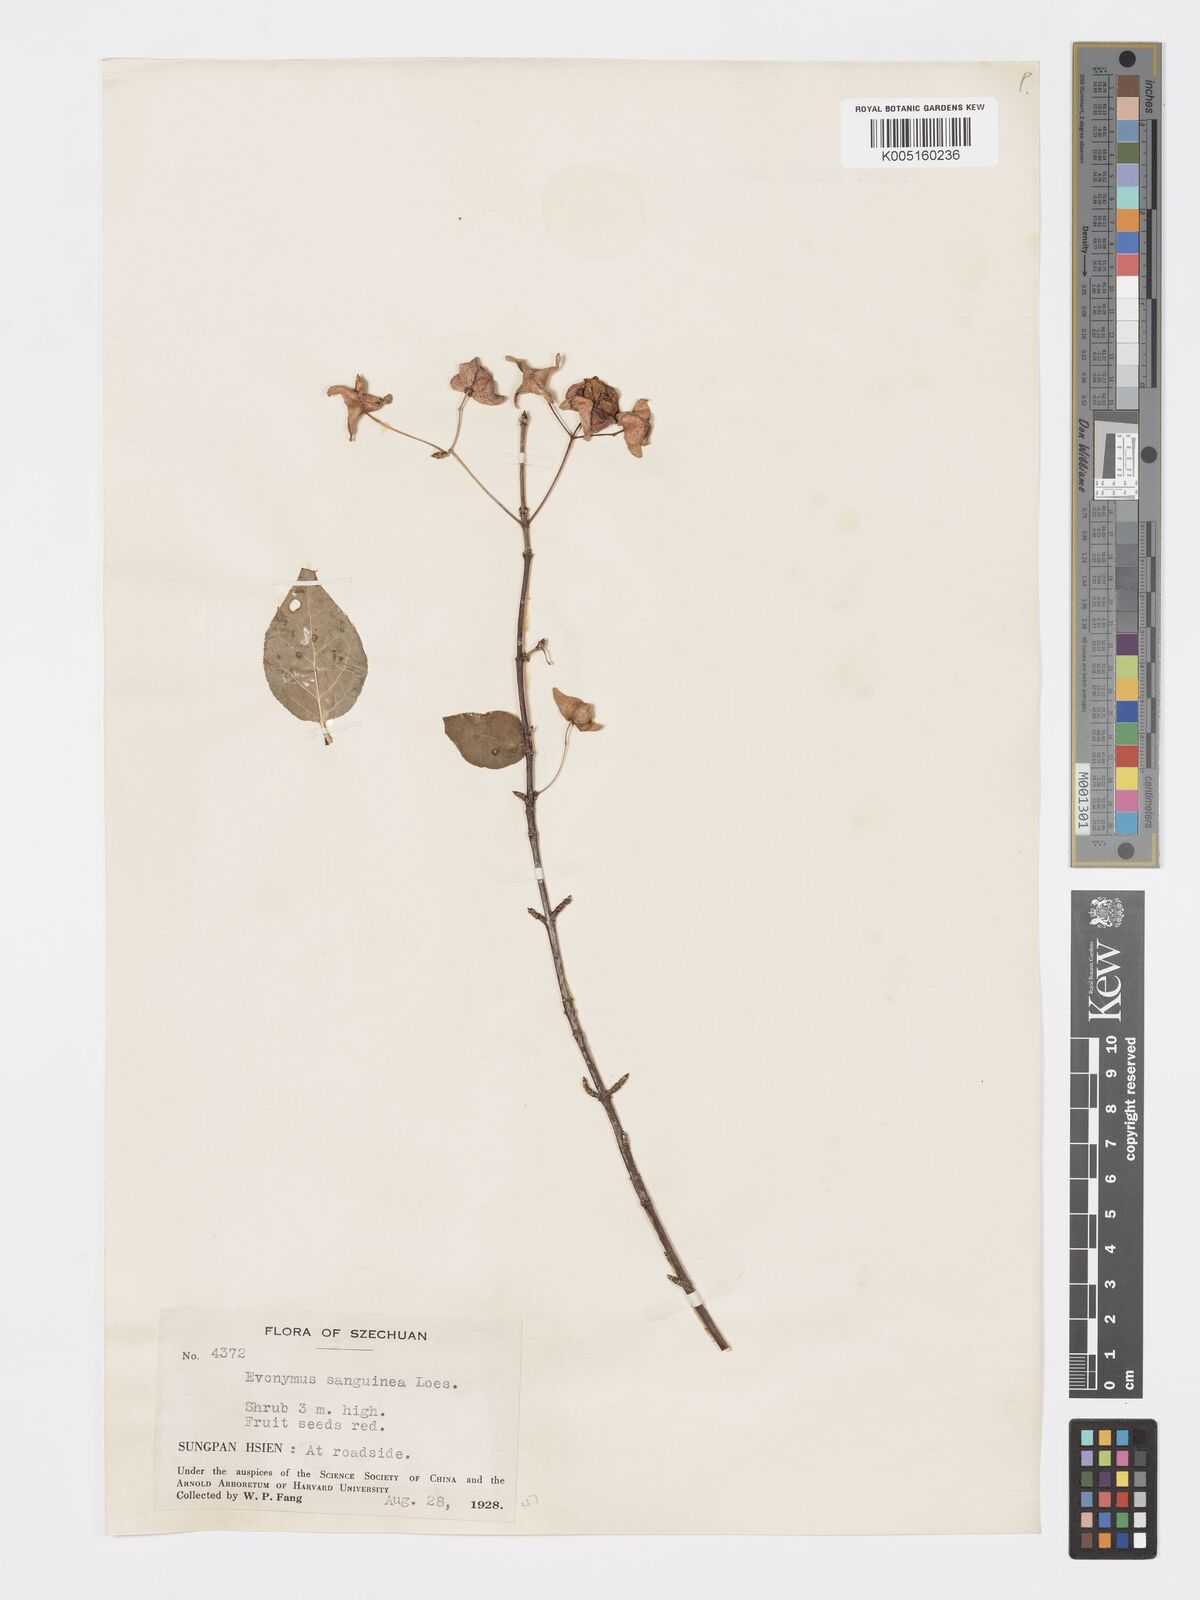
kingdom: Plantae
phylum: Tracheophyta
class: Magnoliopsida
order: Celastrales
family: Celastraceae
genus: Euonymus
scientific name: Euonymus giraldii
